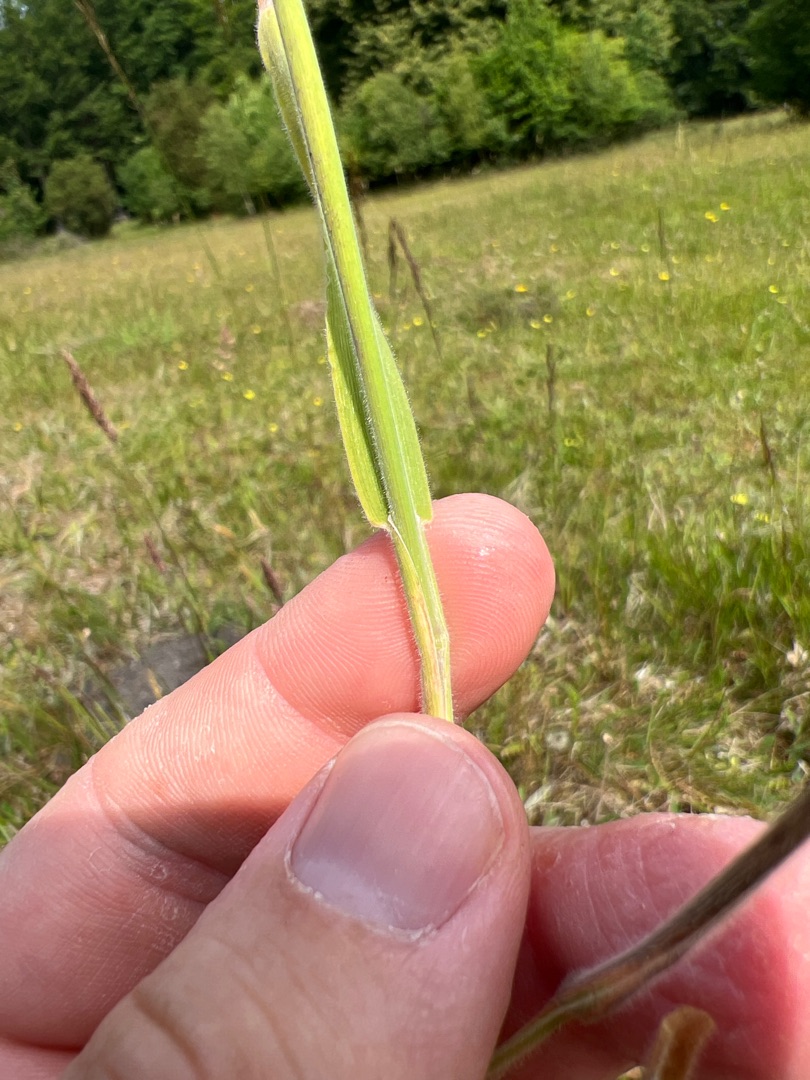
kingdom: Plantae
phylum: Tracheophyta
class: Liliopsida
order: Poales
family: Poaceae
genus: Holcus
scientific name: Holcus lanatus
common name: Fløjlsgræs
